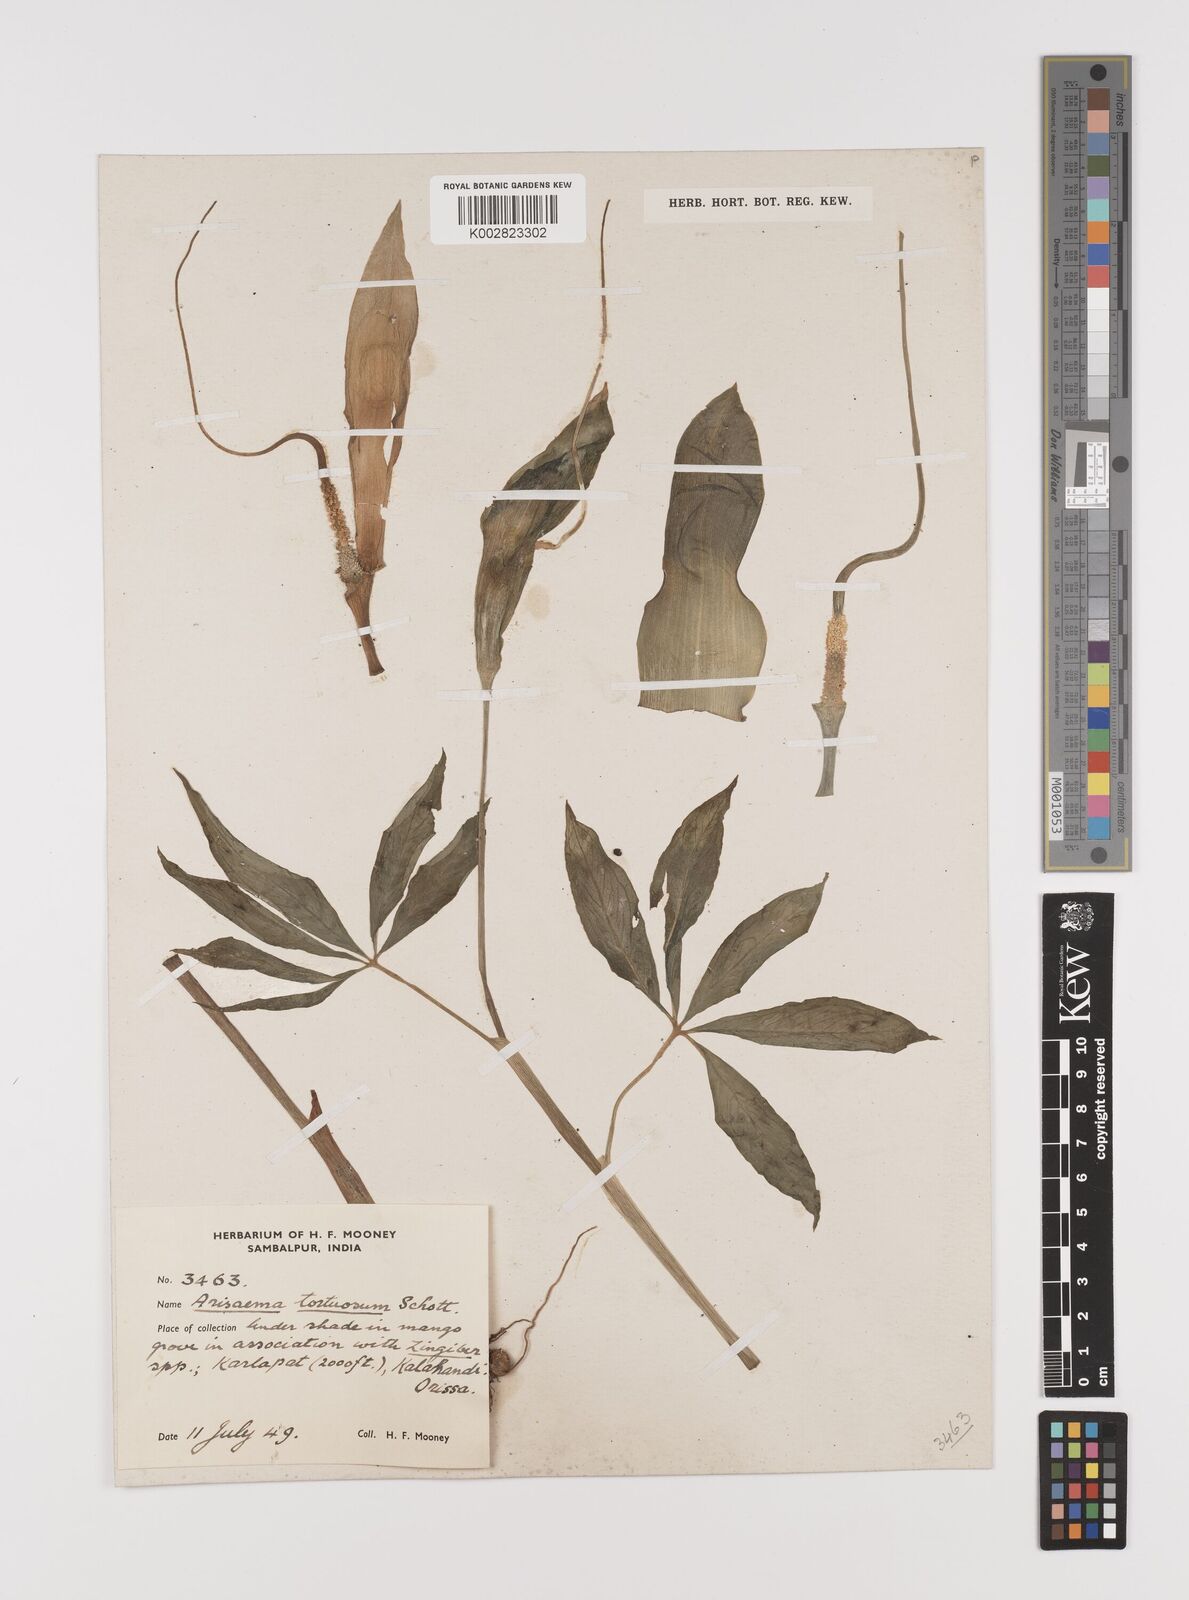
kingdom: Plantae
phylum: Tracheophyta
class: Liliopsida
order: Alismatales
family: Araceae
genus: Arisaema
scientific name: Arisaema tortuosum
